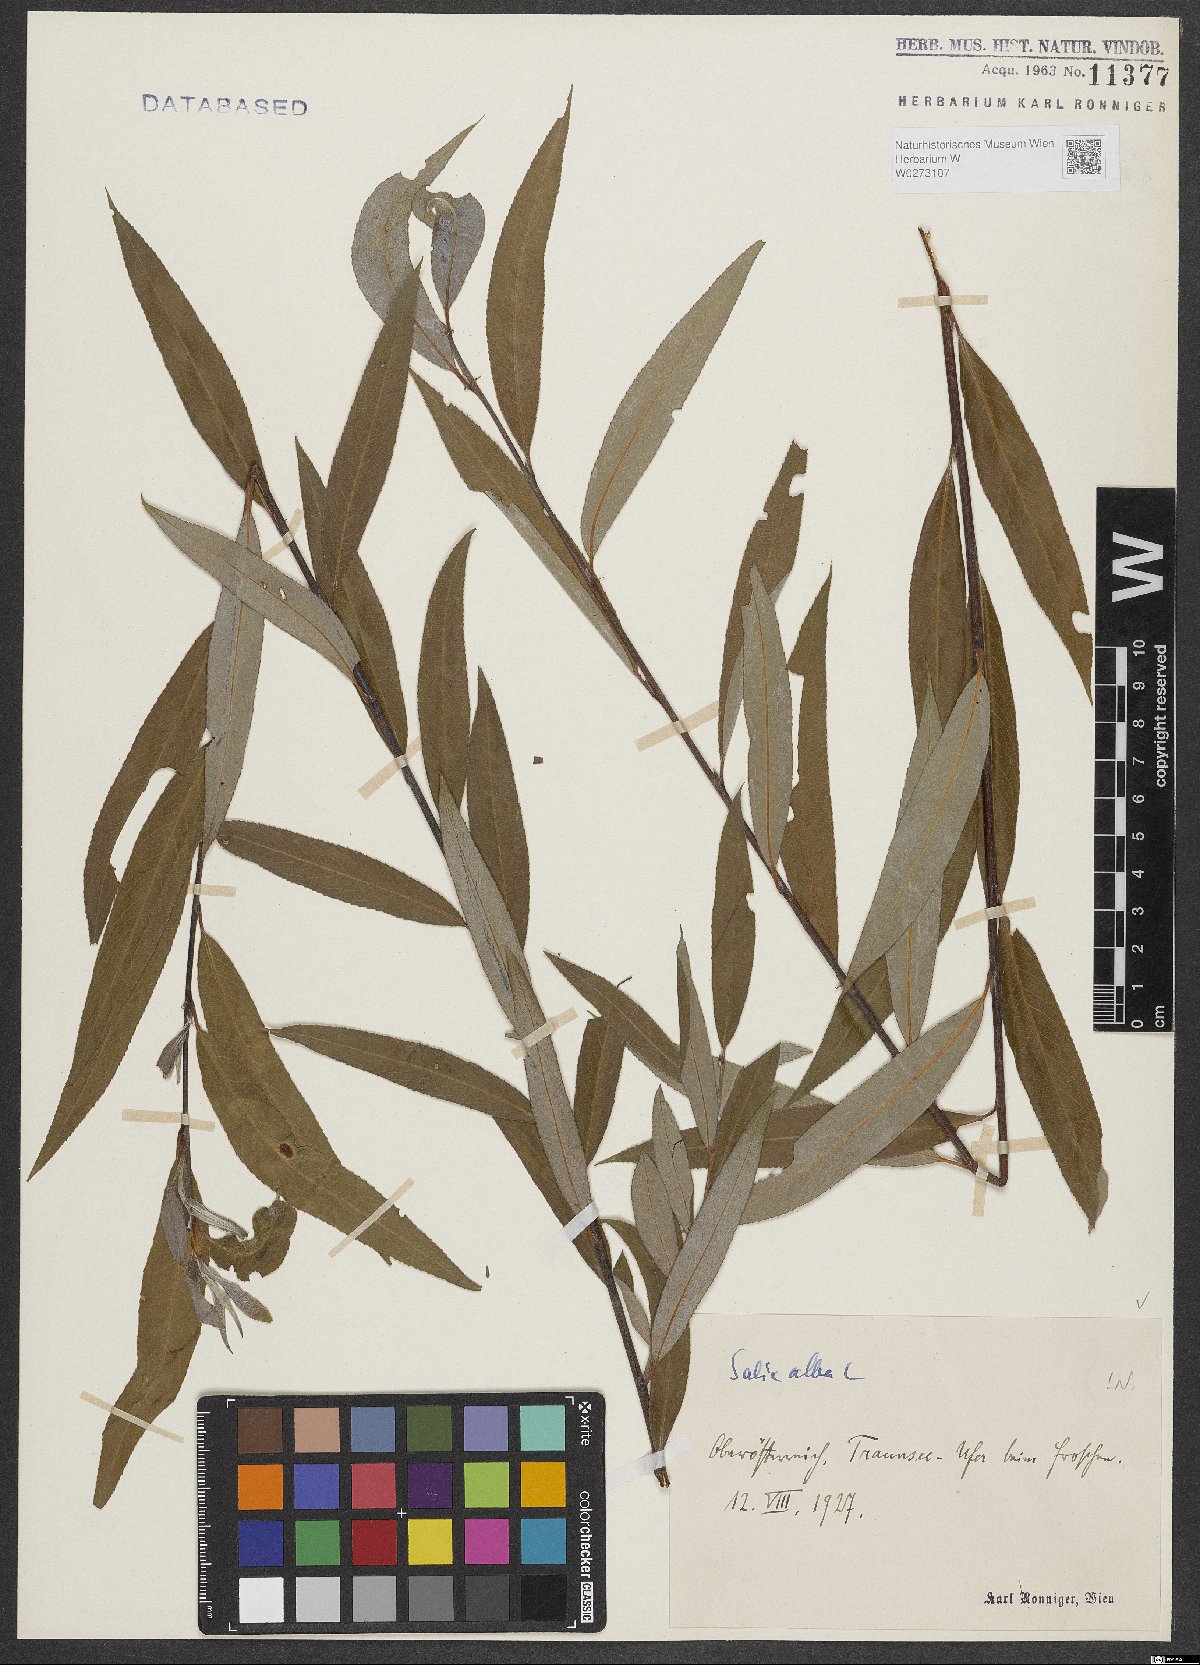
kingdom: Plantae
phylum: Tracheophyta
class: Magnoliopsida
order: Malpighiales
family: Salicaceae
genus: Salix
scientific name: Salix alba
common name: White willow
